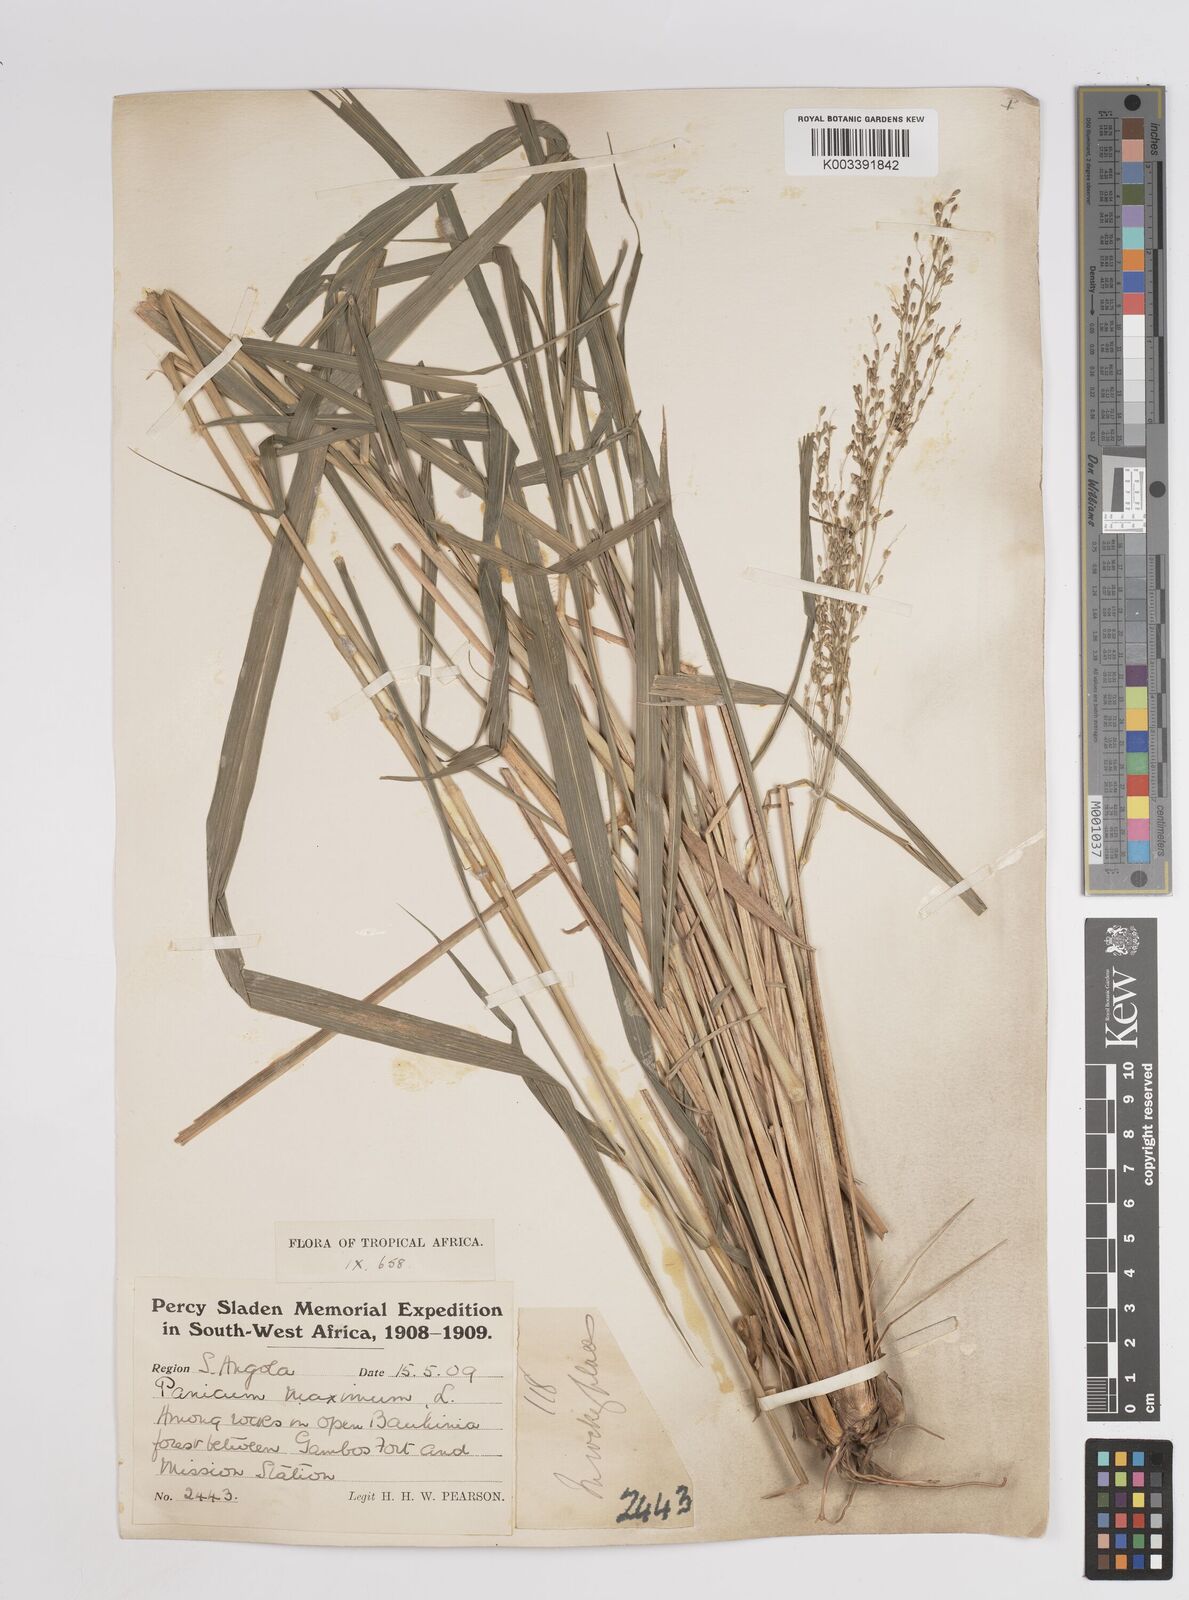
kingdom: Plantae
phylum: Tracheophyta
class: Liliopsida
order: Poales
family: Poaceae
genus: Megathyrsus
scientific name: Megathyrsus maximus
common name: Guineagrass
